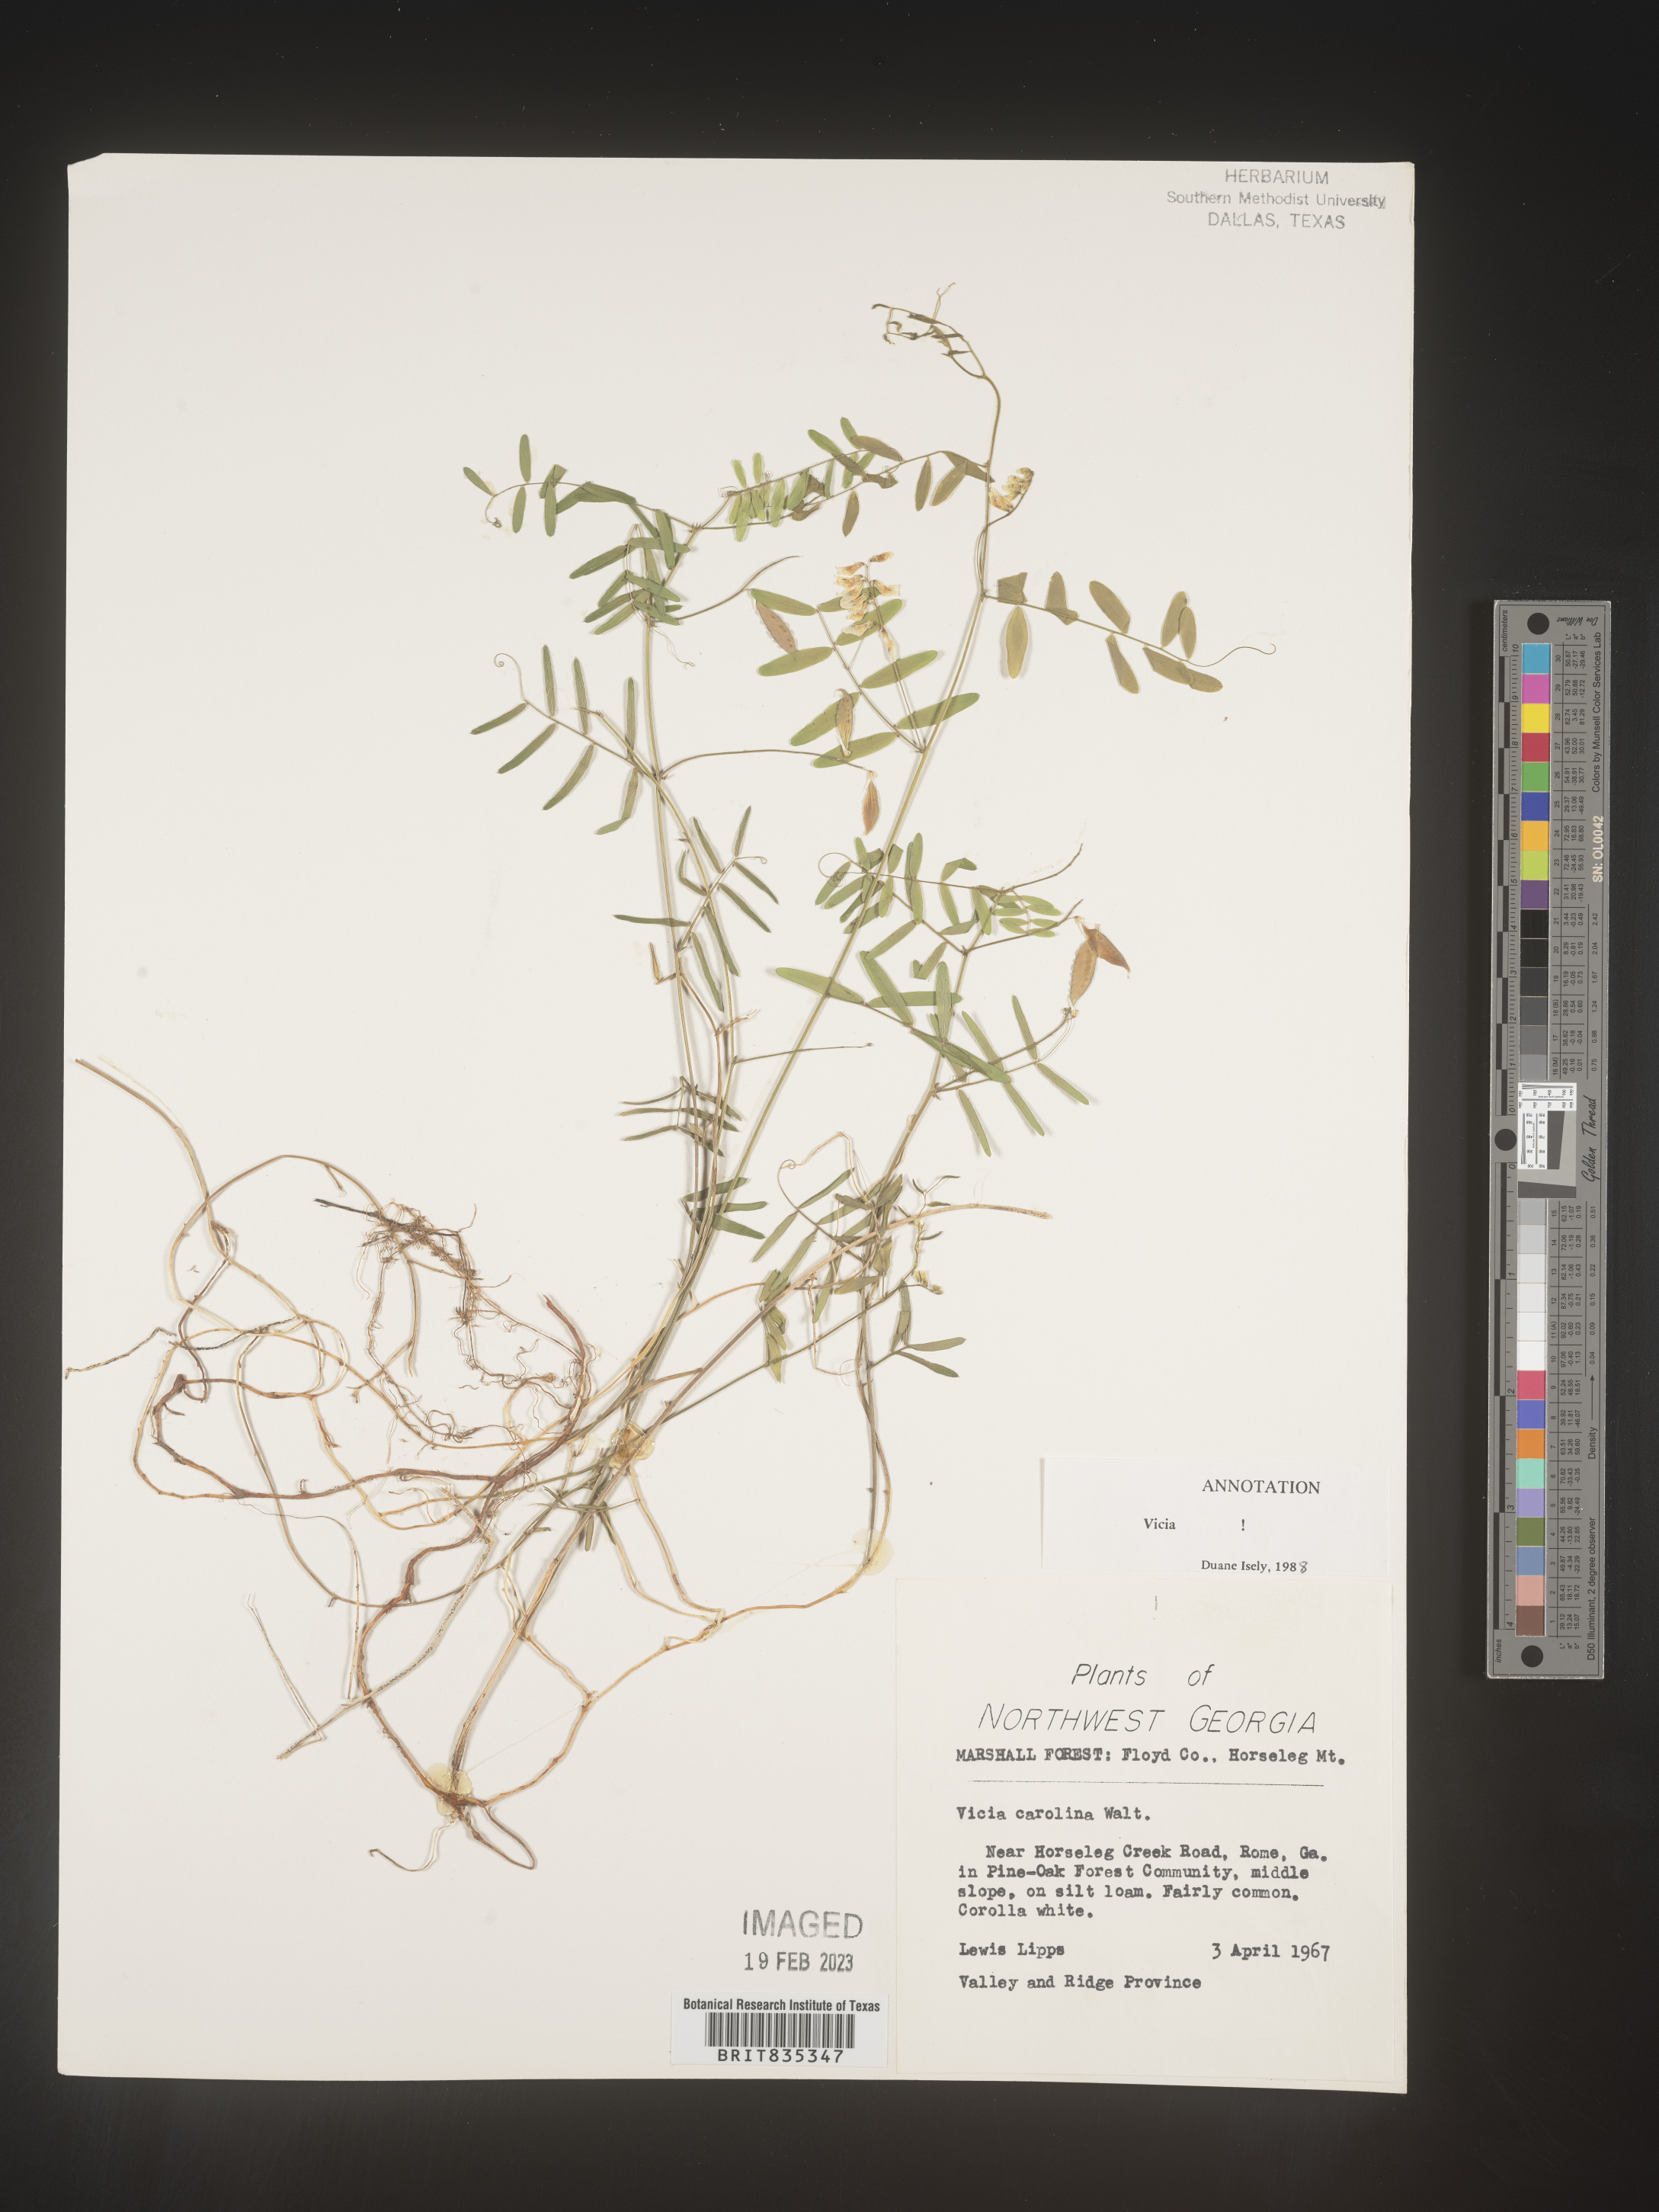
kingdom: Plantae
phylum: Tracheophyta
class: Magnoliopsida
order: Fabales
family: Fabaceae
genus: Vicia
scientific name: Vicia caroliniana
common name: Carolina vetch
